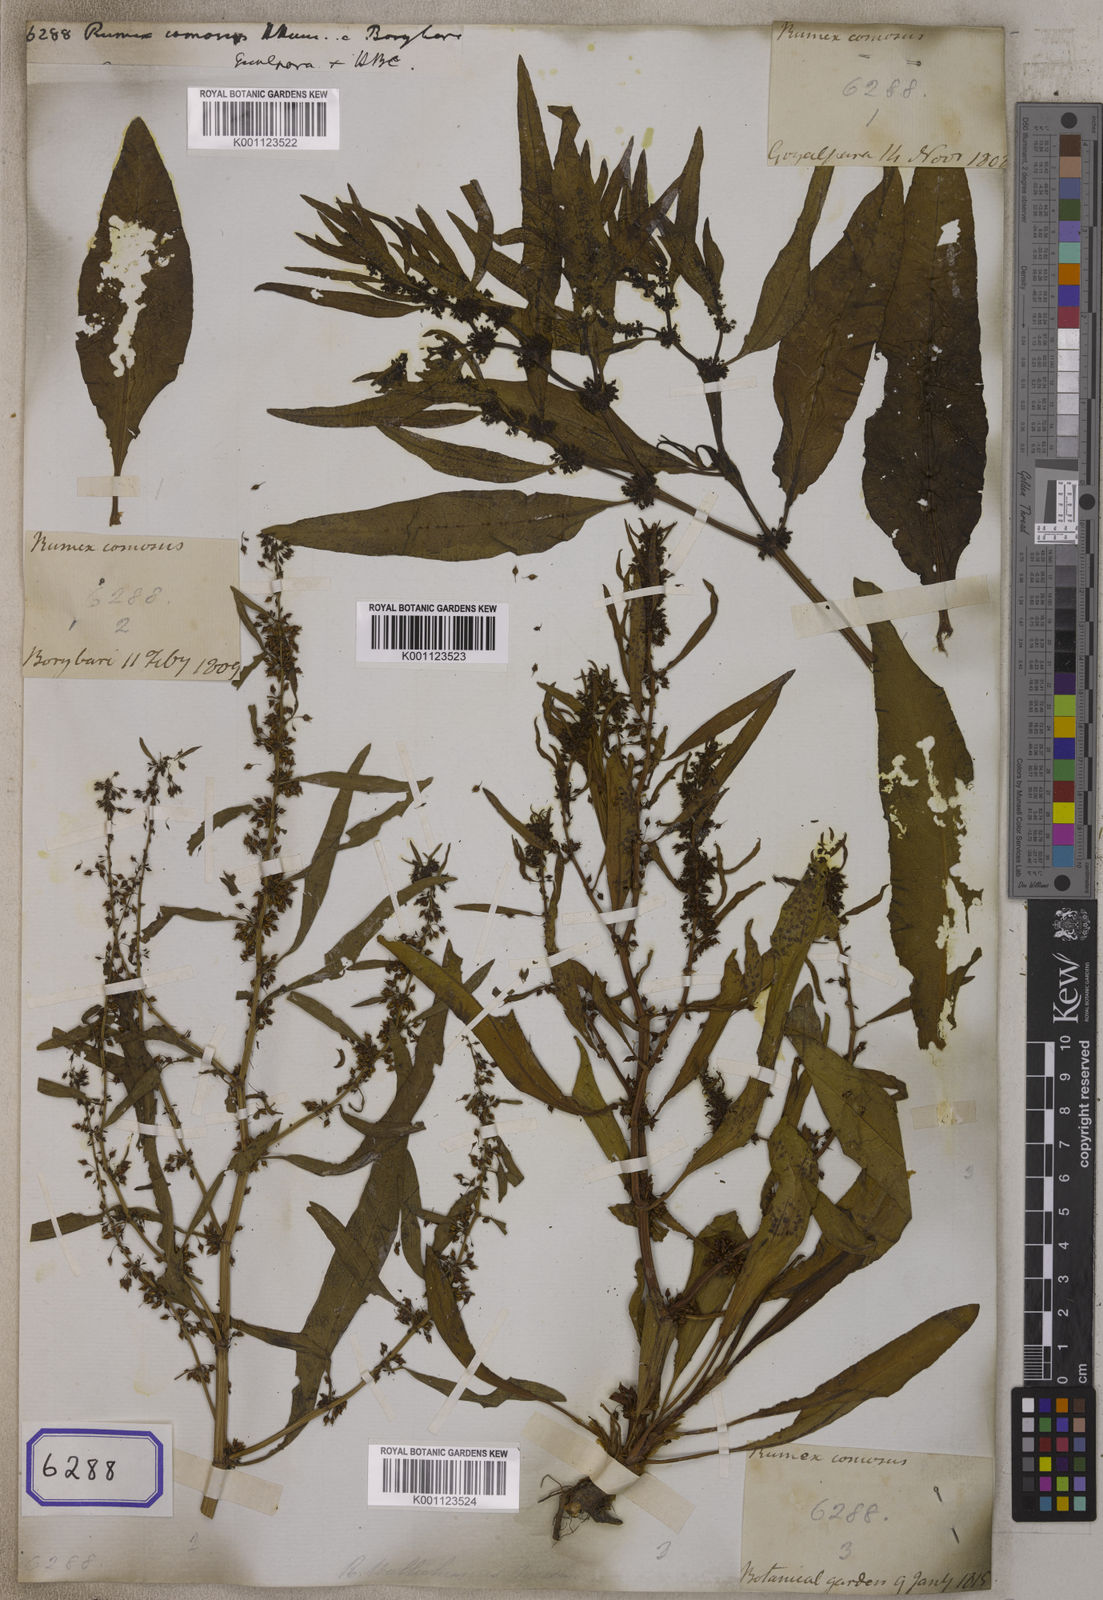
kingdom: Plantae
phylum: Tracheophyta
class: Magnoliopsida
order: Caryophyllales
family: Polygonaceae
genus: Rumex
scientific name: Rumex
